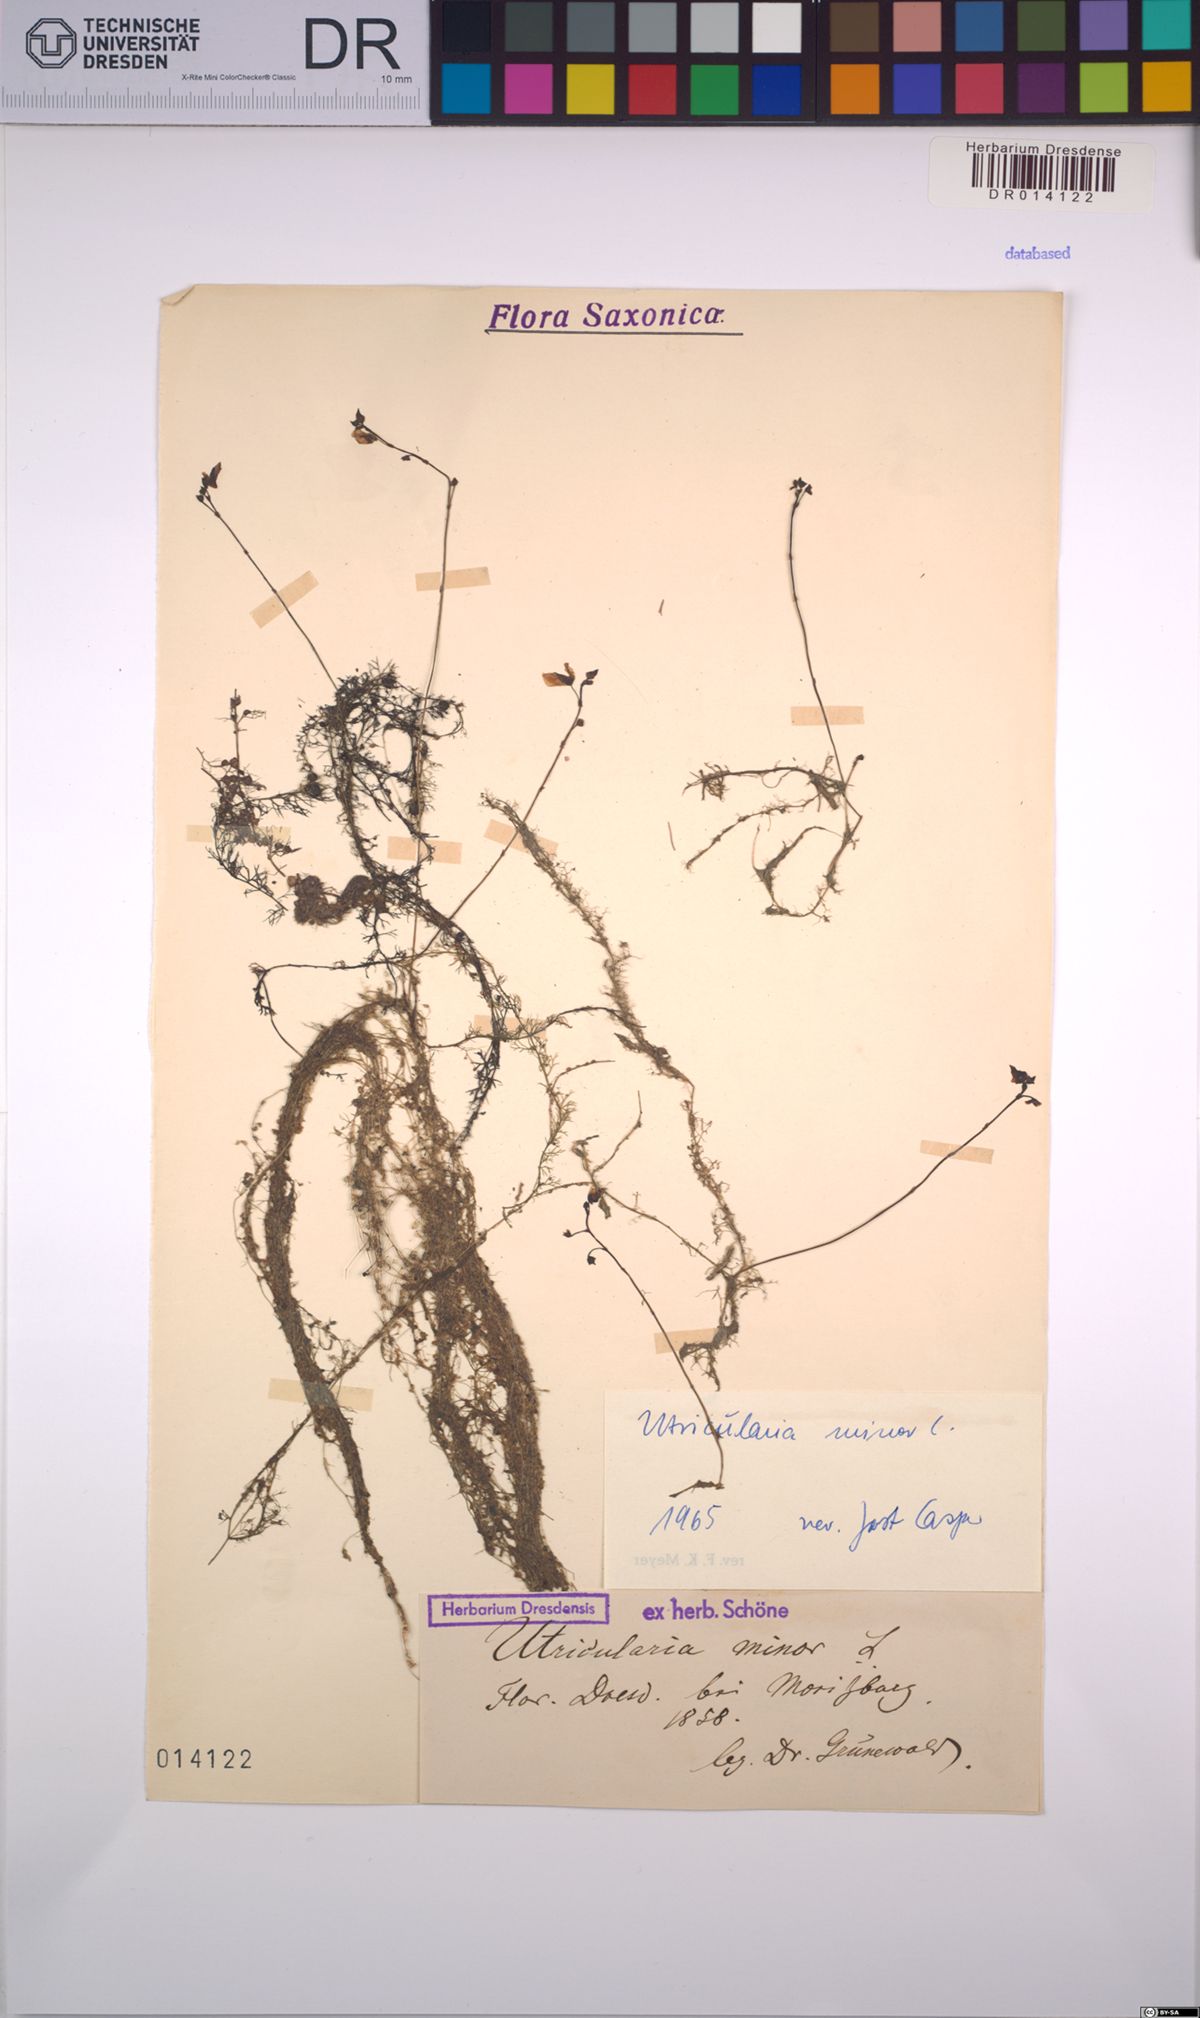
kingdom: Plantae
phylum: Tracheophyta
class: Magnoliopsida
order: Lamiales
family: Lentibulariaceae
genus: Utricularia
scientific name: Utricularia minor
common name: Lesser bladderwort
